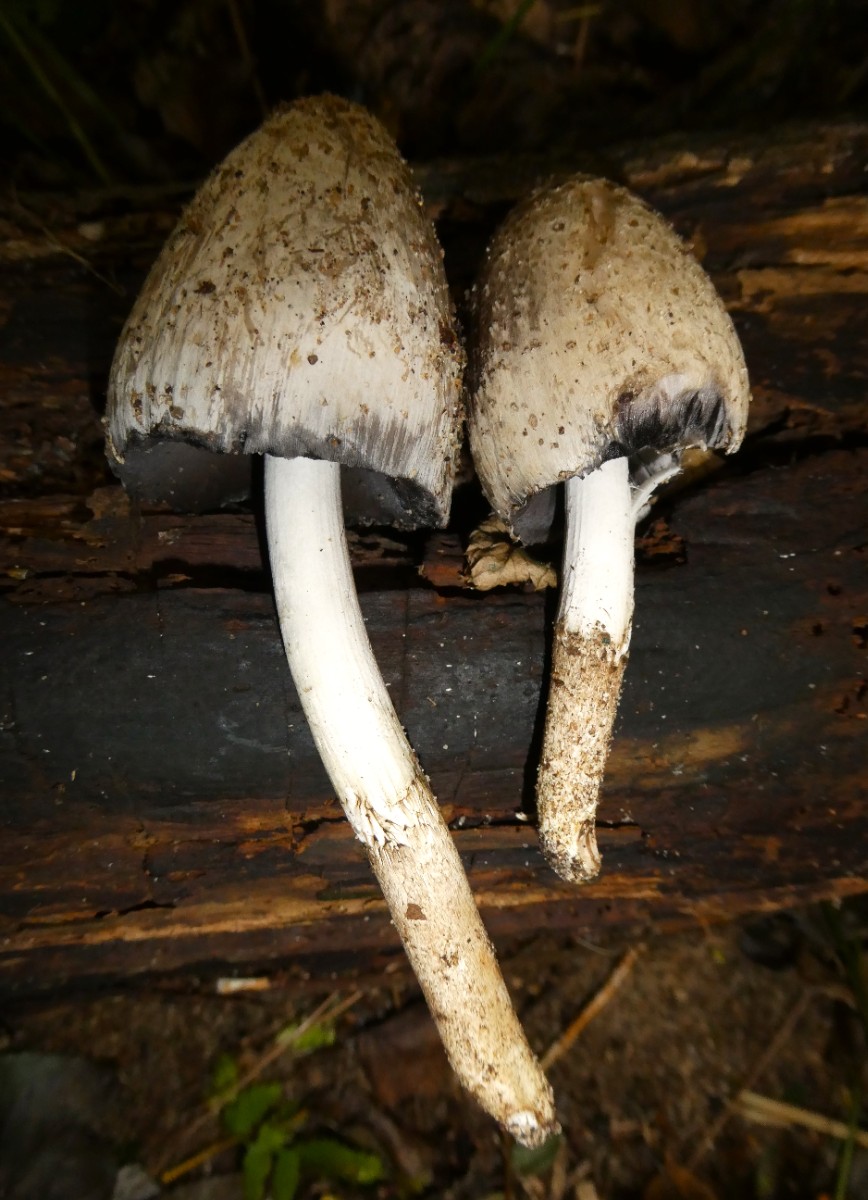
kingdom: Fungi
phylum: Basidiomycota
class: Agaricomycetes
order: Agaricales
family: Psathyrellaceae
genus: Coprinopsis
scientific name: Coprinopsis romagnesiana
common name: brunskællet blækhat
